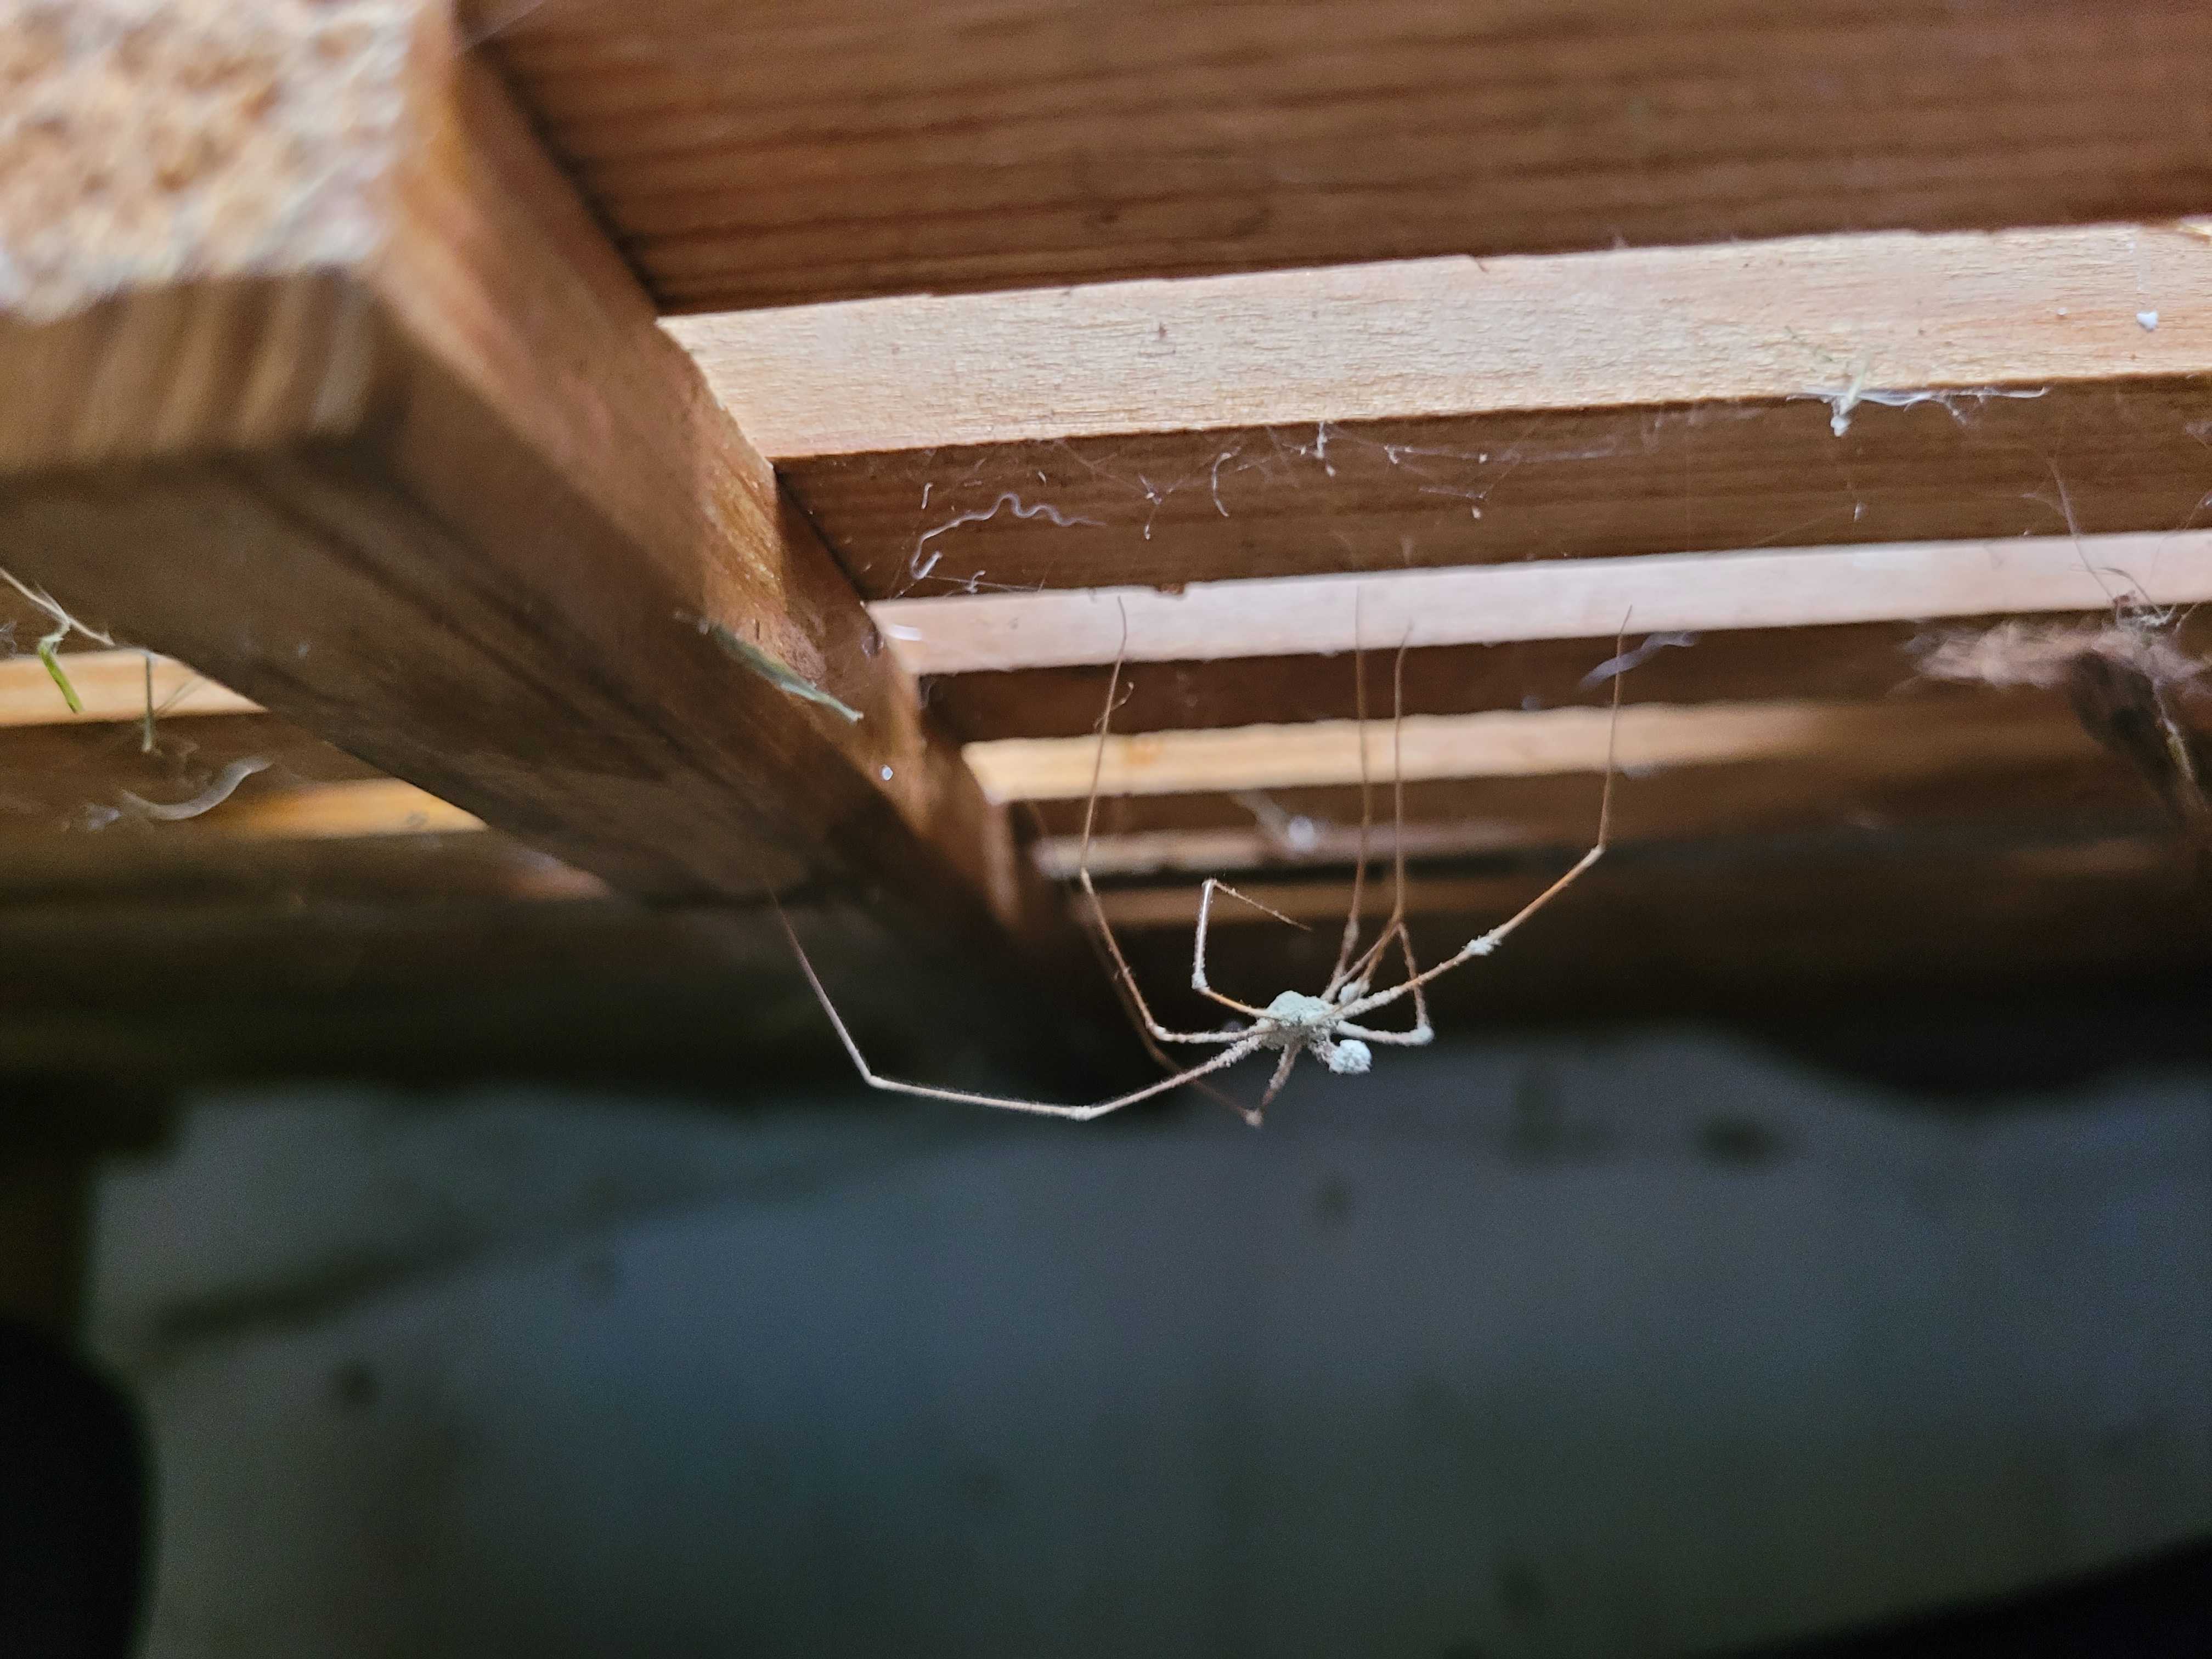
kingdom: Fungi
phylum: Ascomycota
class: Sordariomycetes
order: Hypocreales
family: Cordycipitaceae
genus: Lecanicillium
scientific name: Lecanicillium tenuipes
